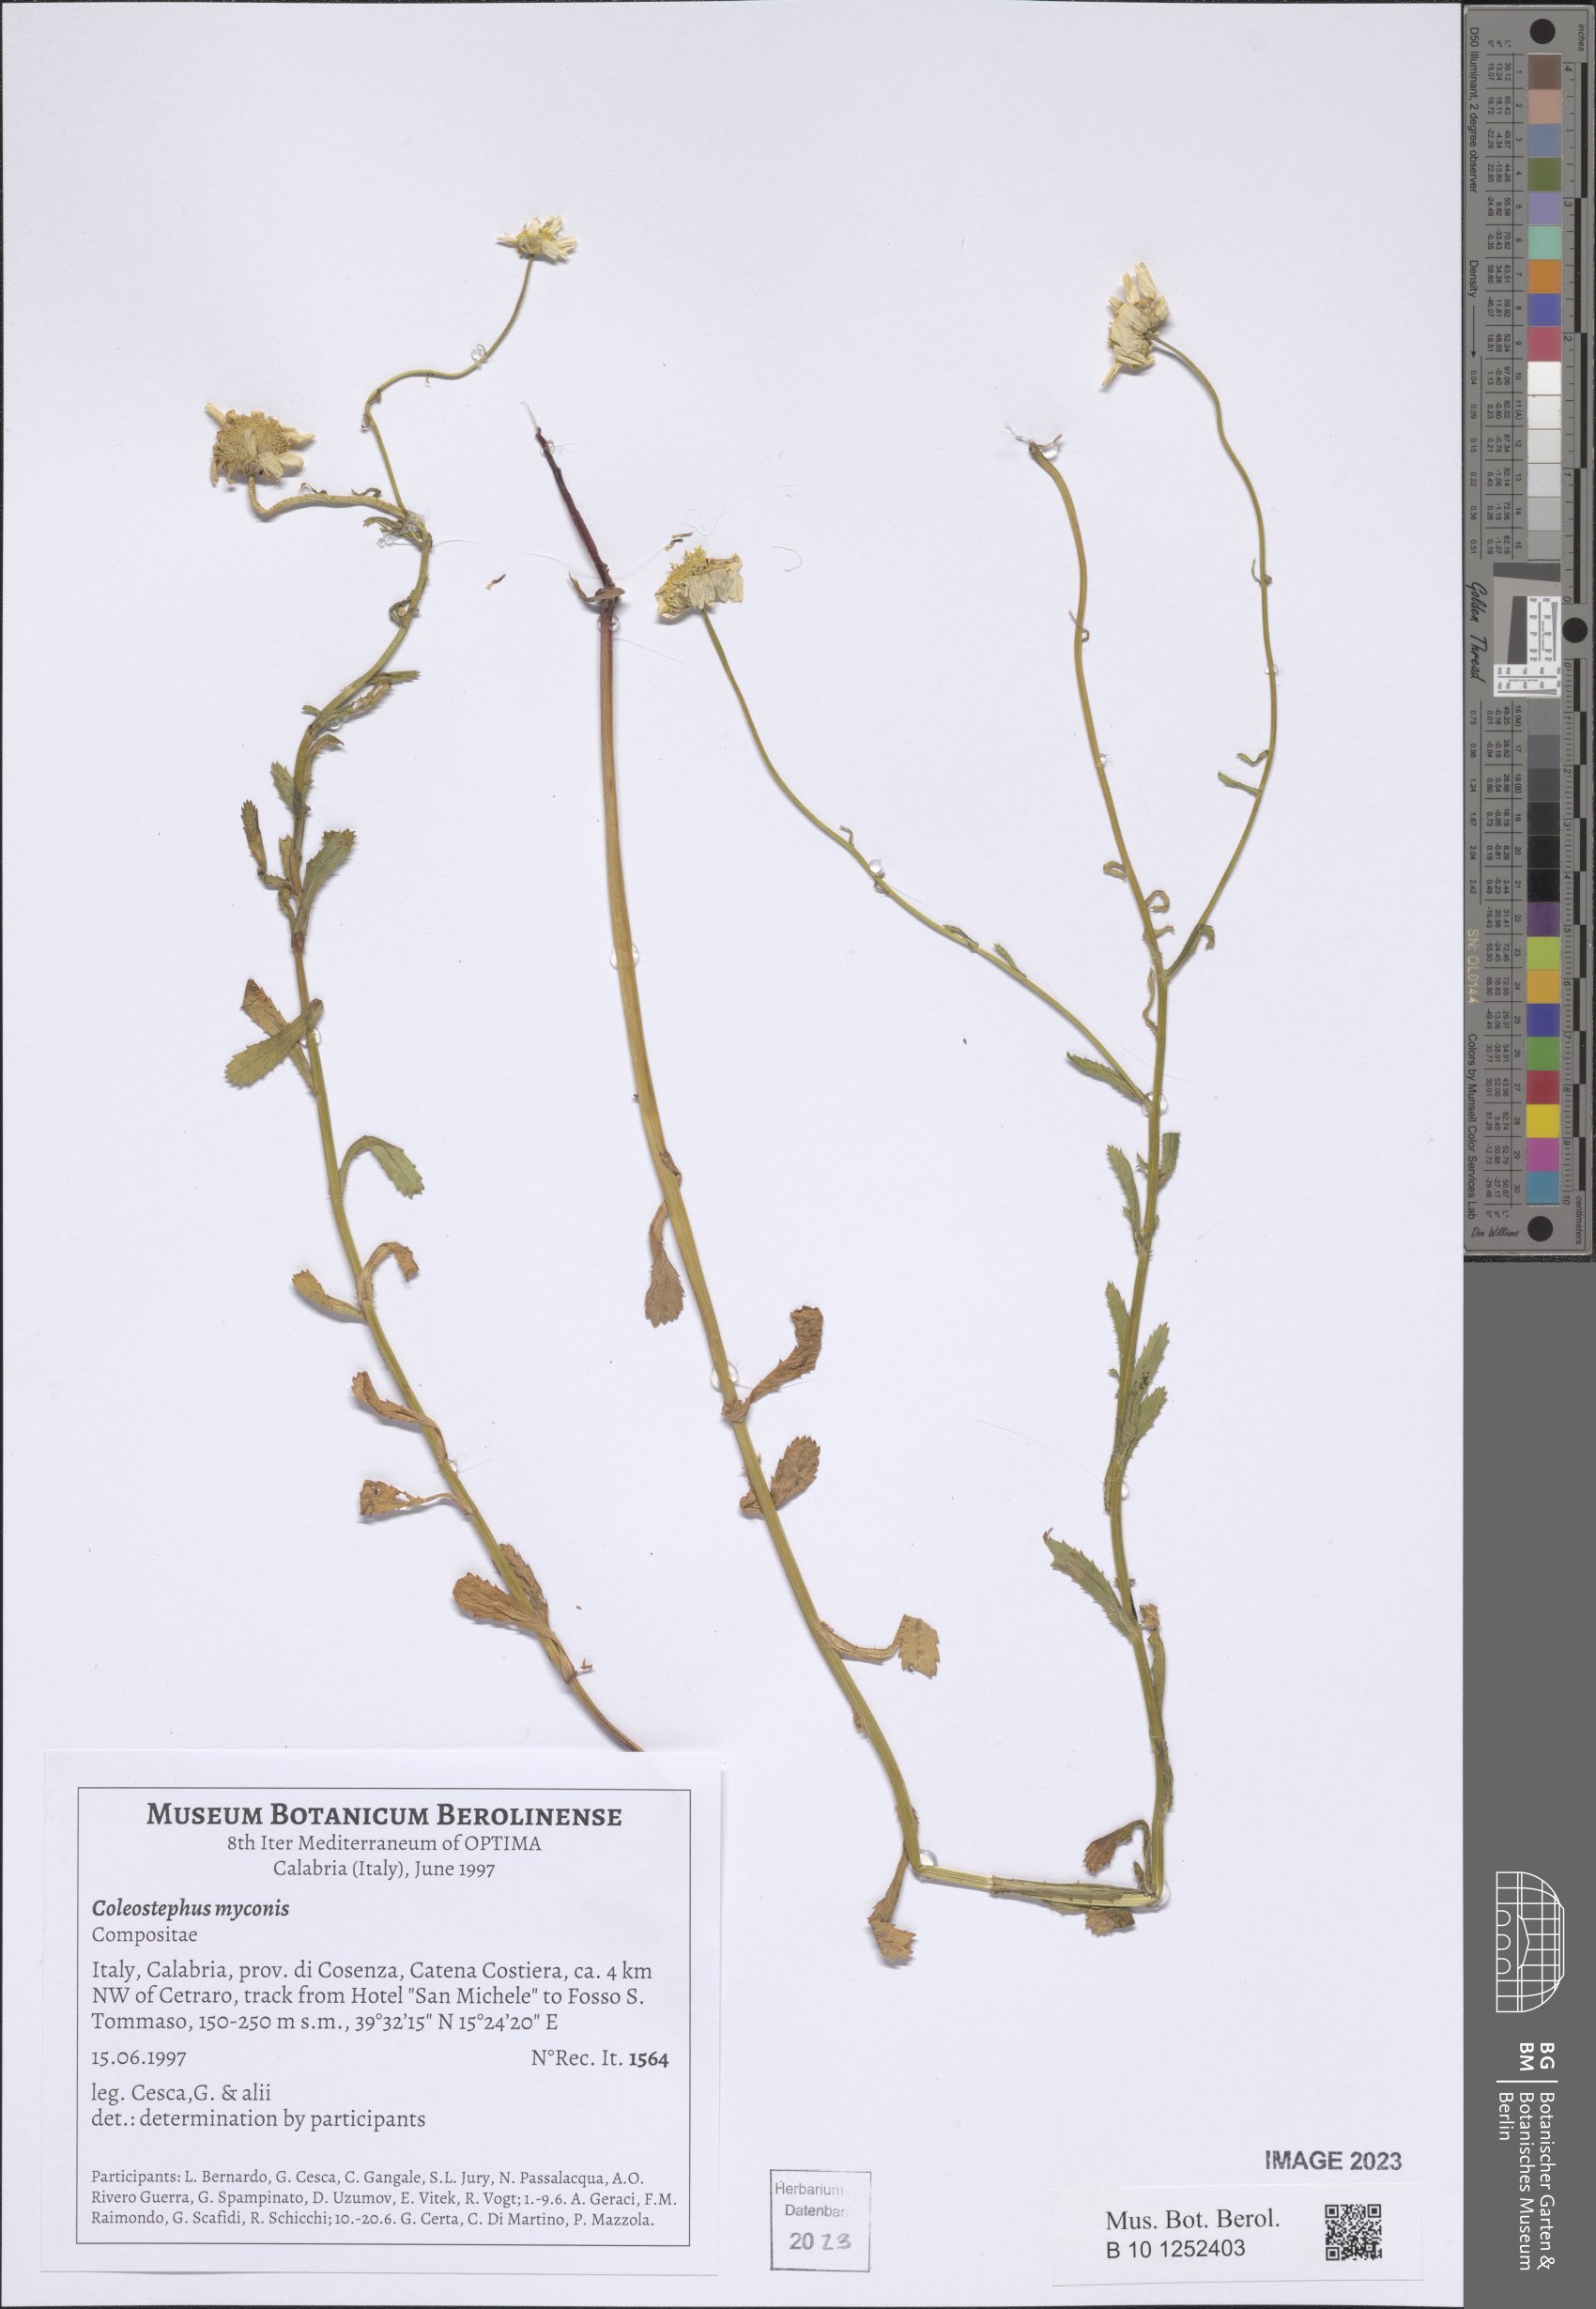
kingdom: Plantae
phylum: Tracheophyta
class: Magnoliopsida
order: Asterales
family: Asteraceae
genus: Coleostephus
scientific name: Coleostephus myconis
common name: Mediterranean marigold
